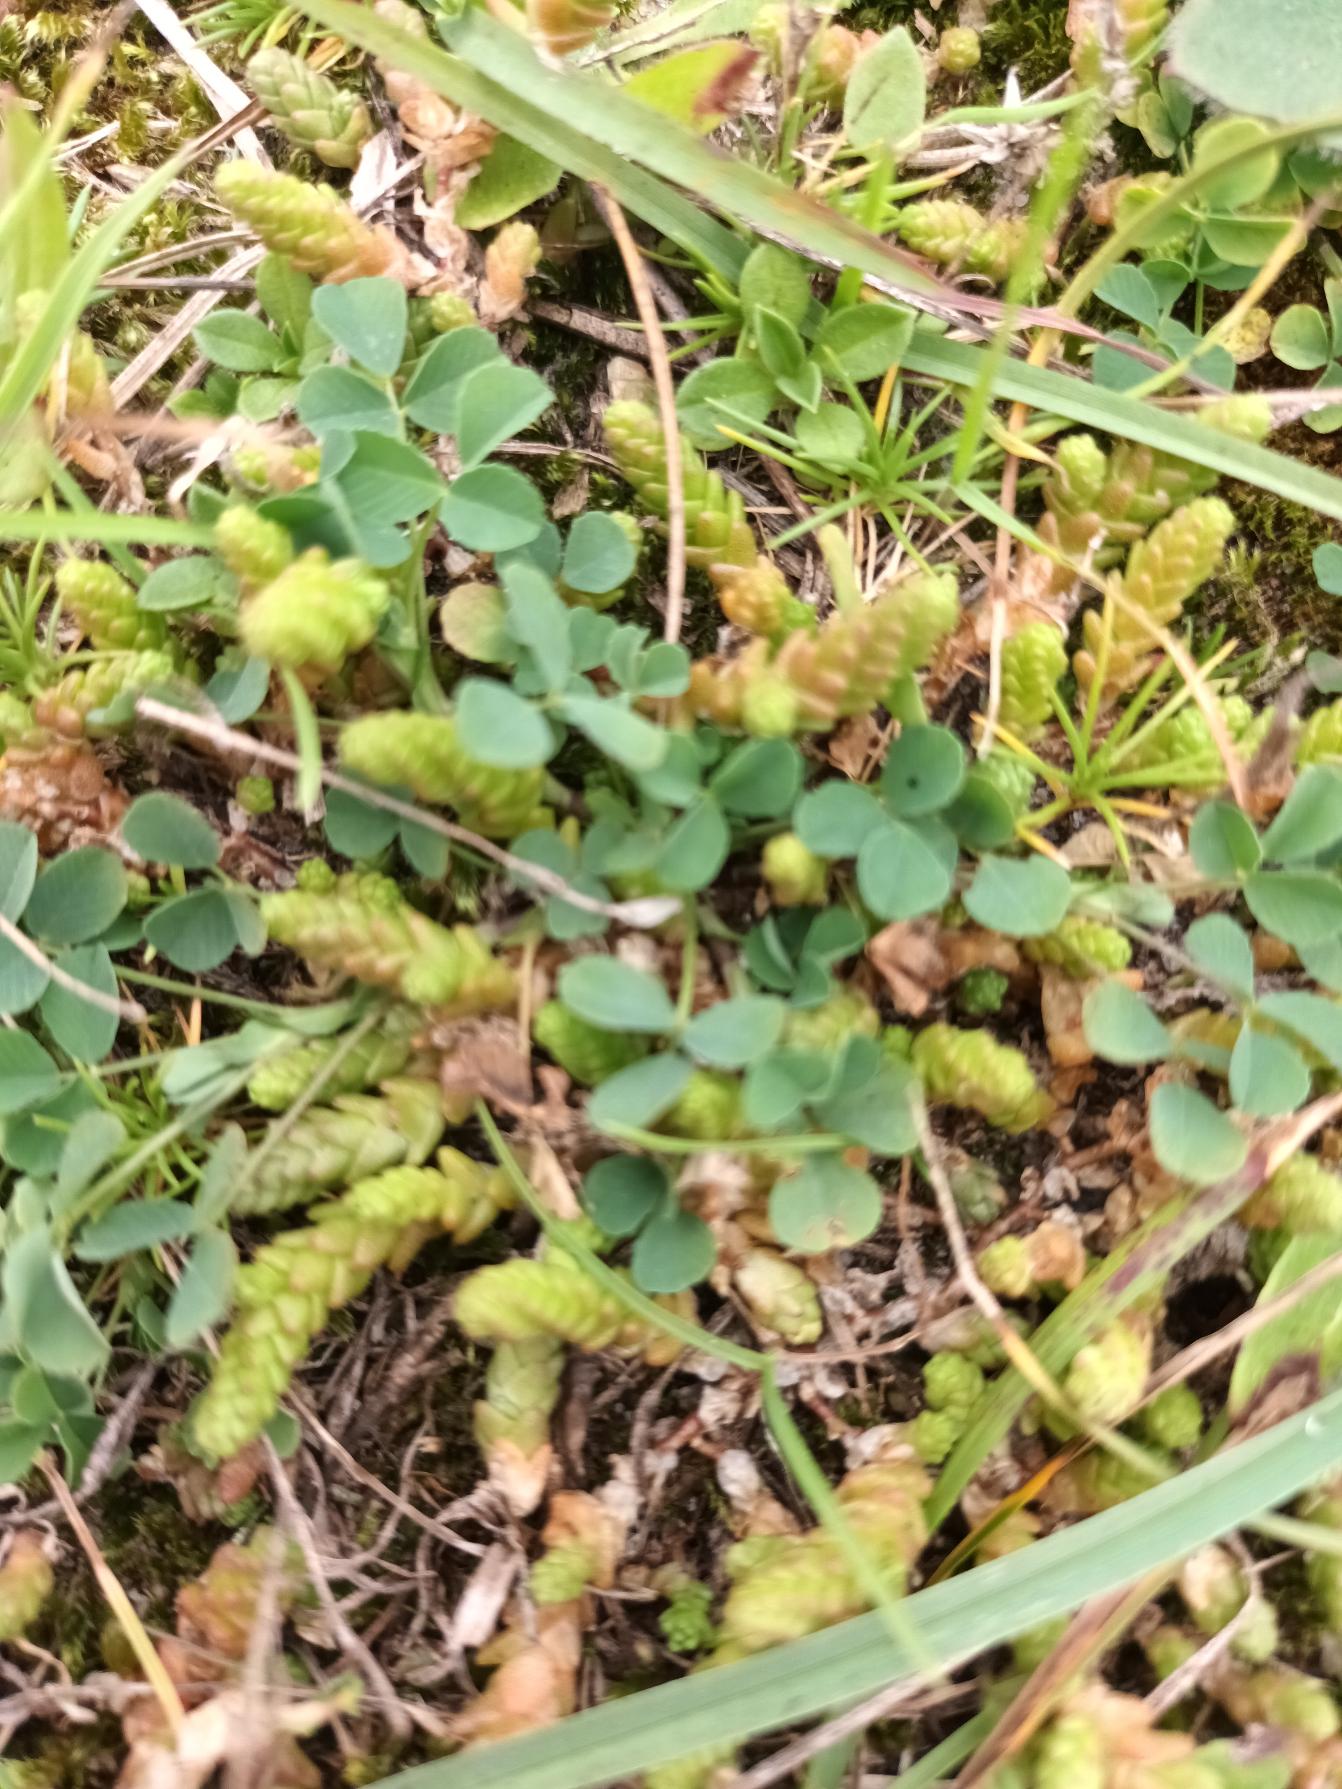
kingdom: Plantae
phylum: Tracheophyta
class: Magnoliopsida
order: Saxifragales
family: Crassulaceae
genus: Sedum
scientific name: Sedum acre
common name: Bidende stenurt
